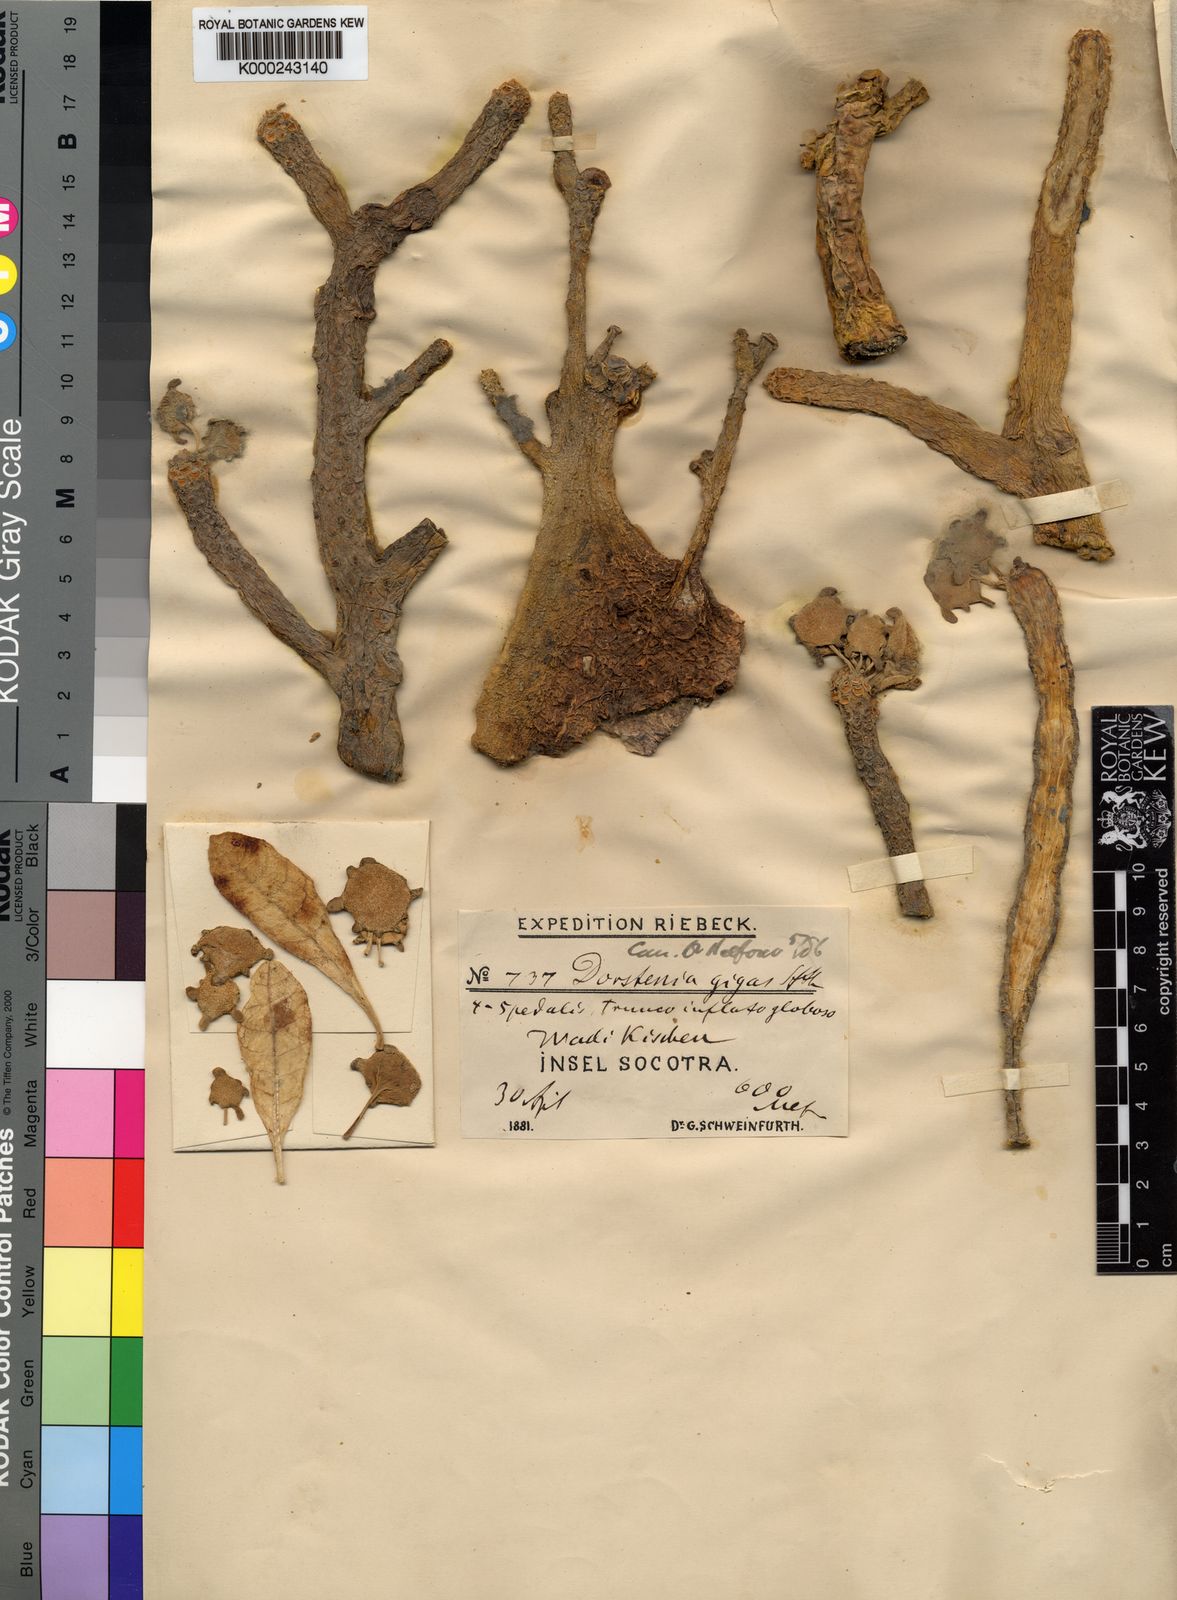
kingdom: Plantae
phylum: Tracheophyta
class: Magnoliopsida
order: Rosales
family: Moraceae
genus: Dorstenia
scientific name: Dorstenia
